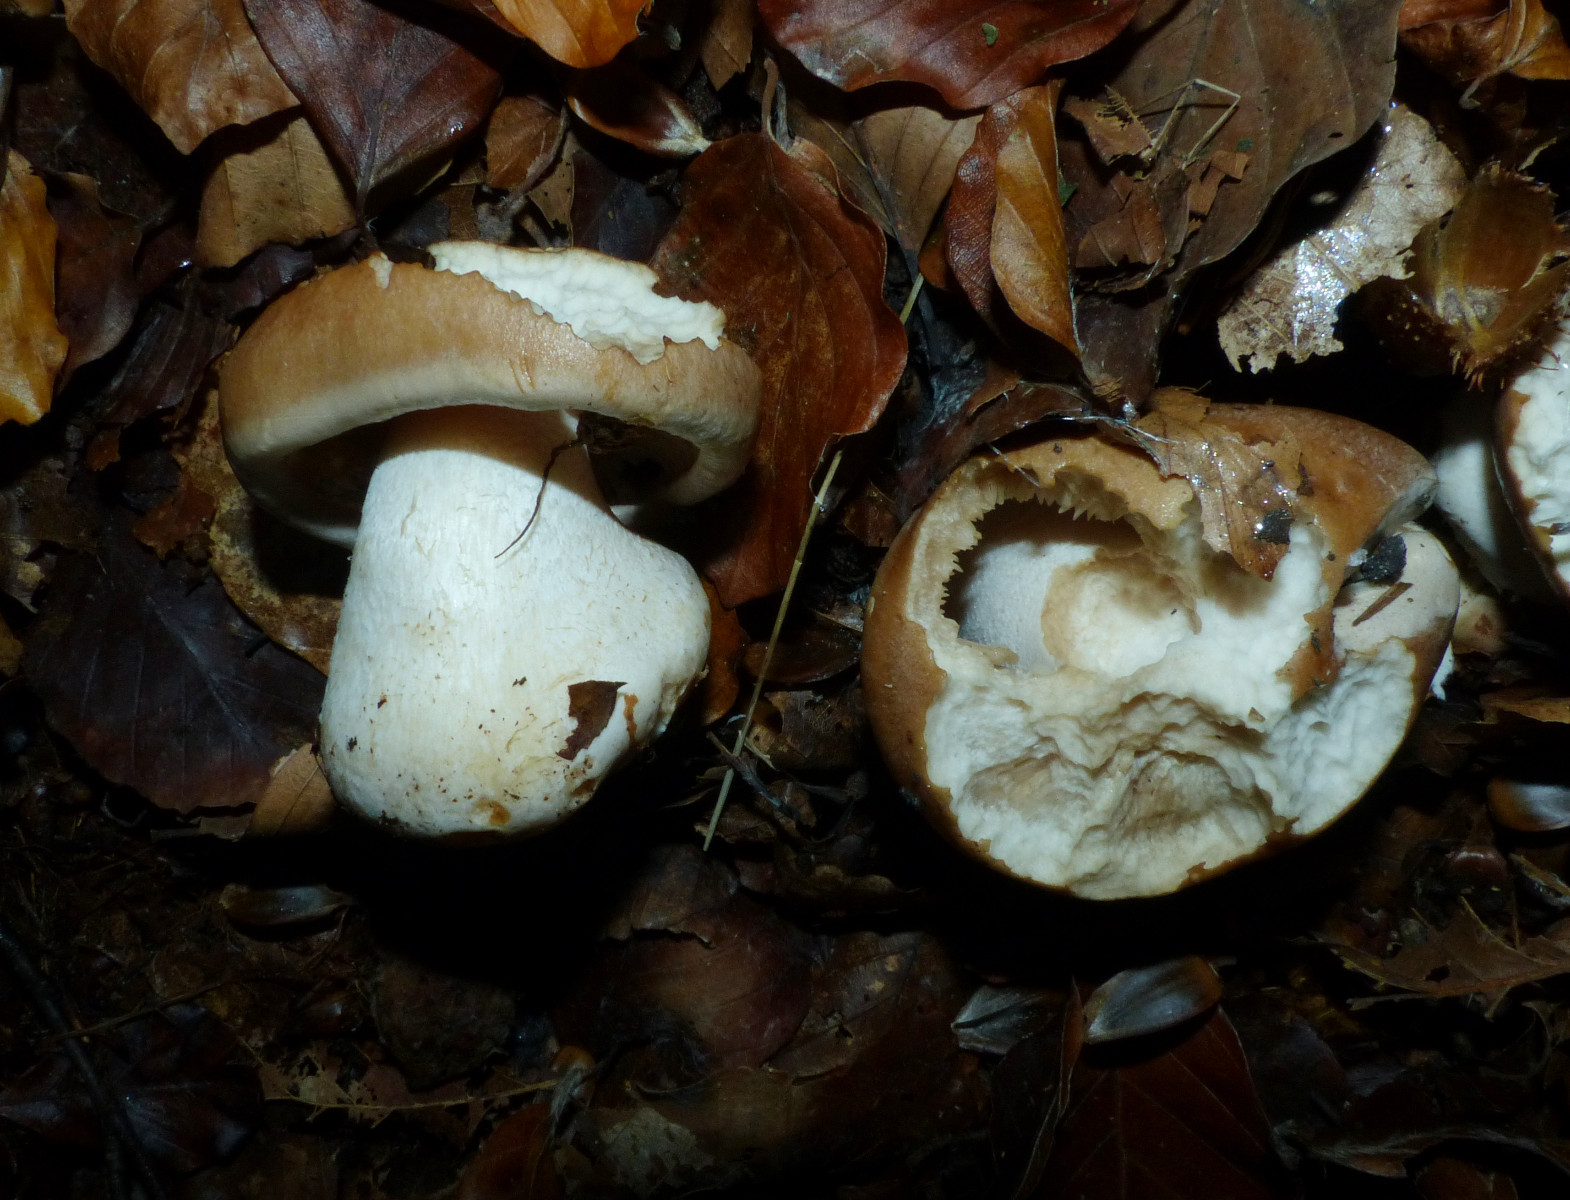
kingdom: Fungi
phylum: Basidiomycota
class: Agaricomycetes
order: Agaricales
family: Hymenogastraceae
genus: Hebeloma
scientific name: Hebeloma sinapizans
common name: ræddike-tåreblad
